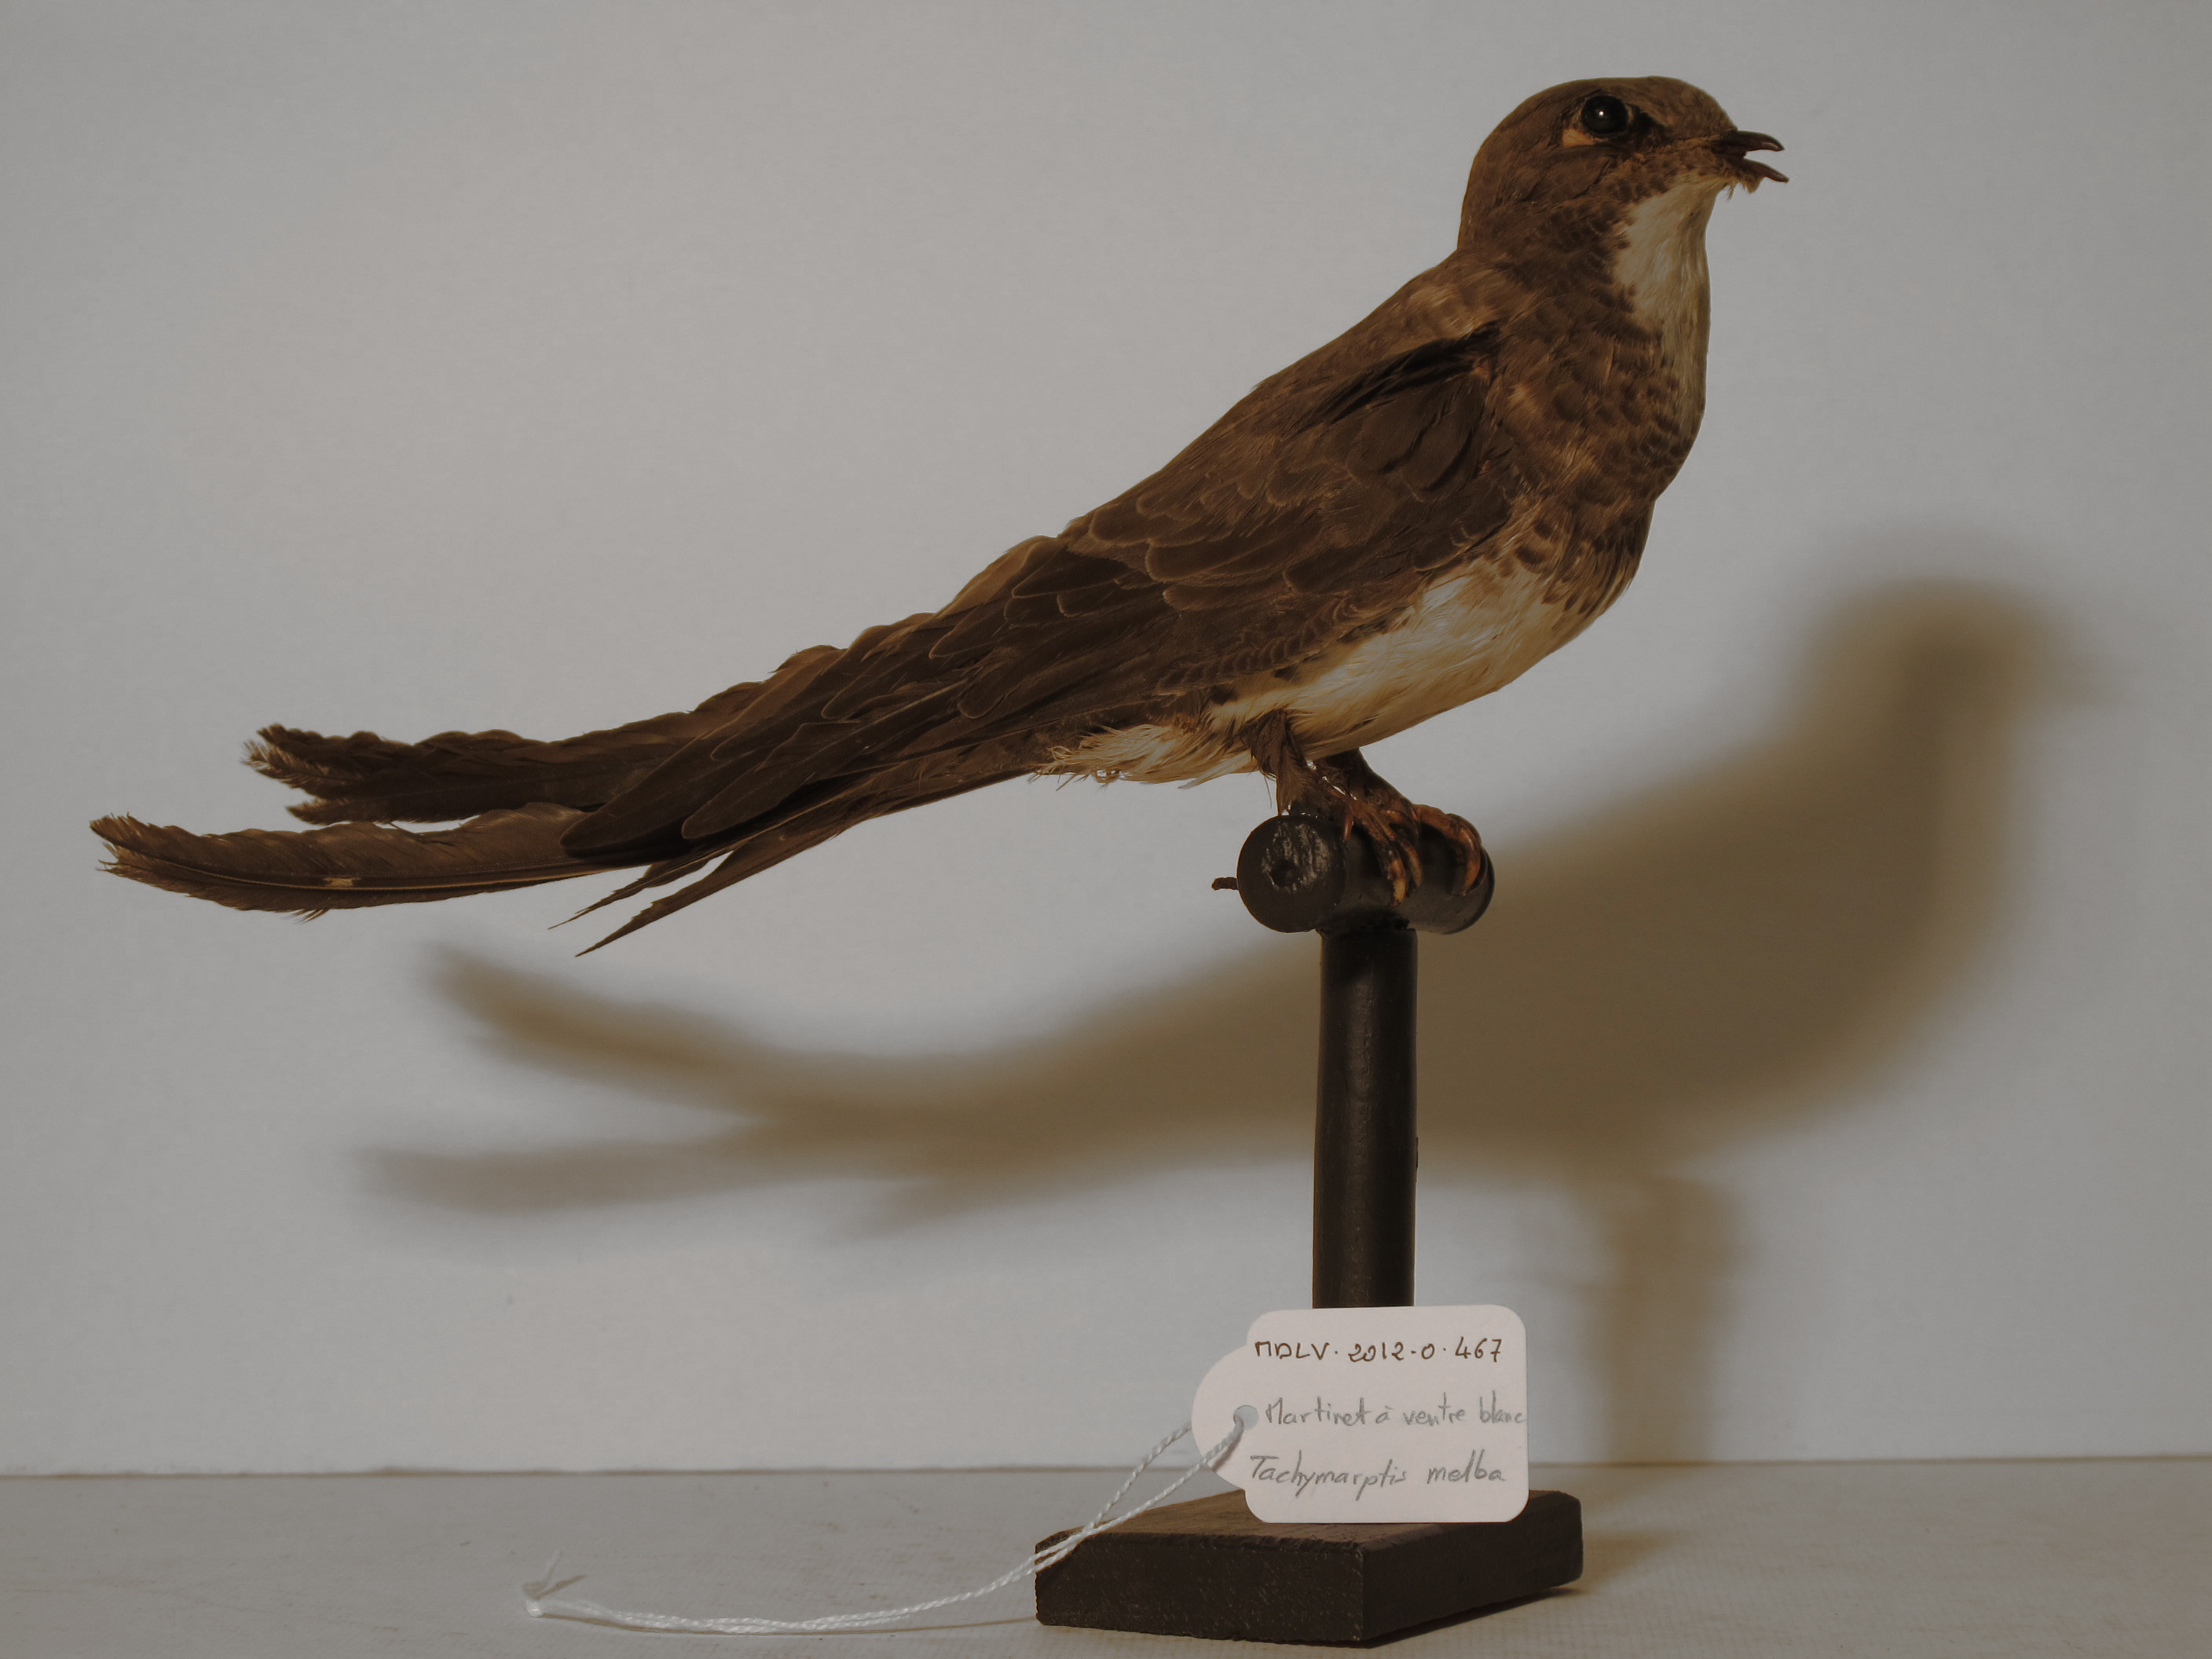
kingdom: Animalia
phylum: Chordata
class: Aves
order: Apodiformes
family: Apodidae
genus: Tachymarptis
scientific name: Tachymarptis melba
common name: Alpine Swift
